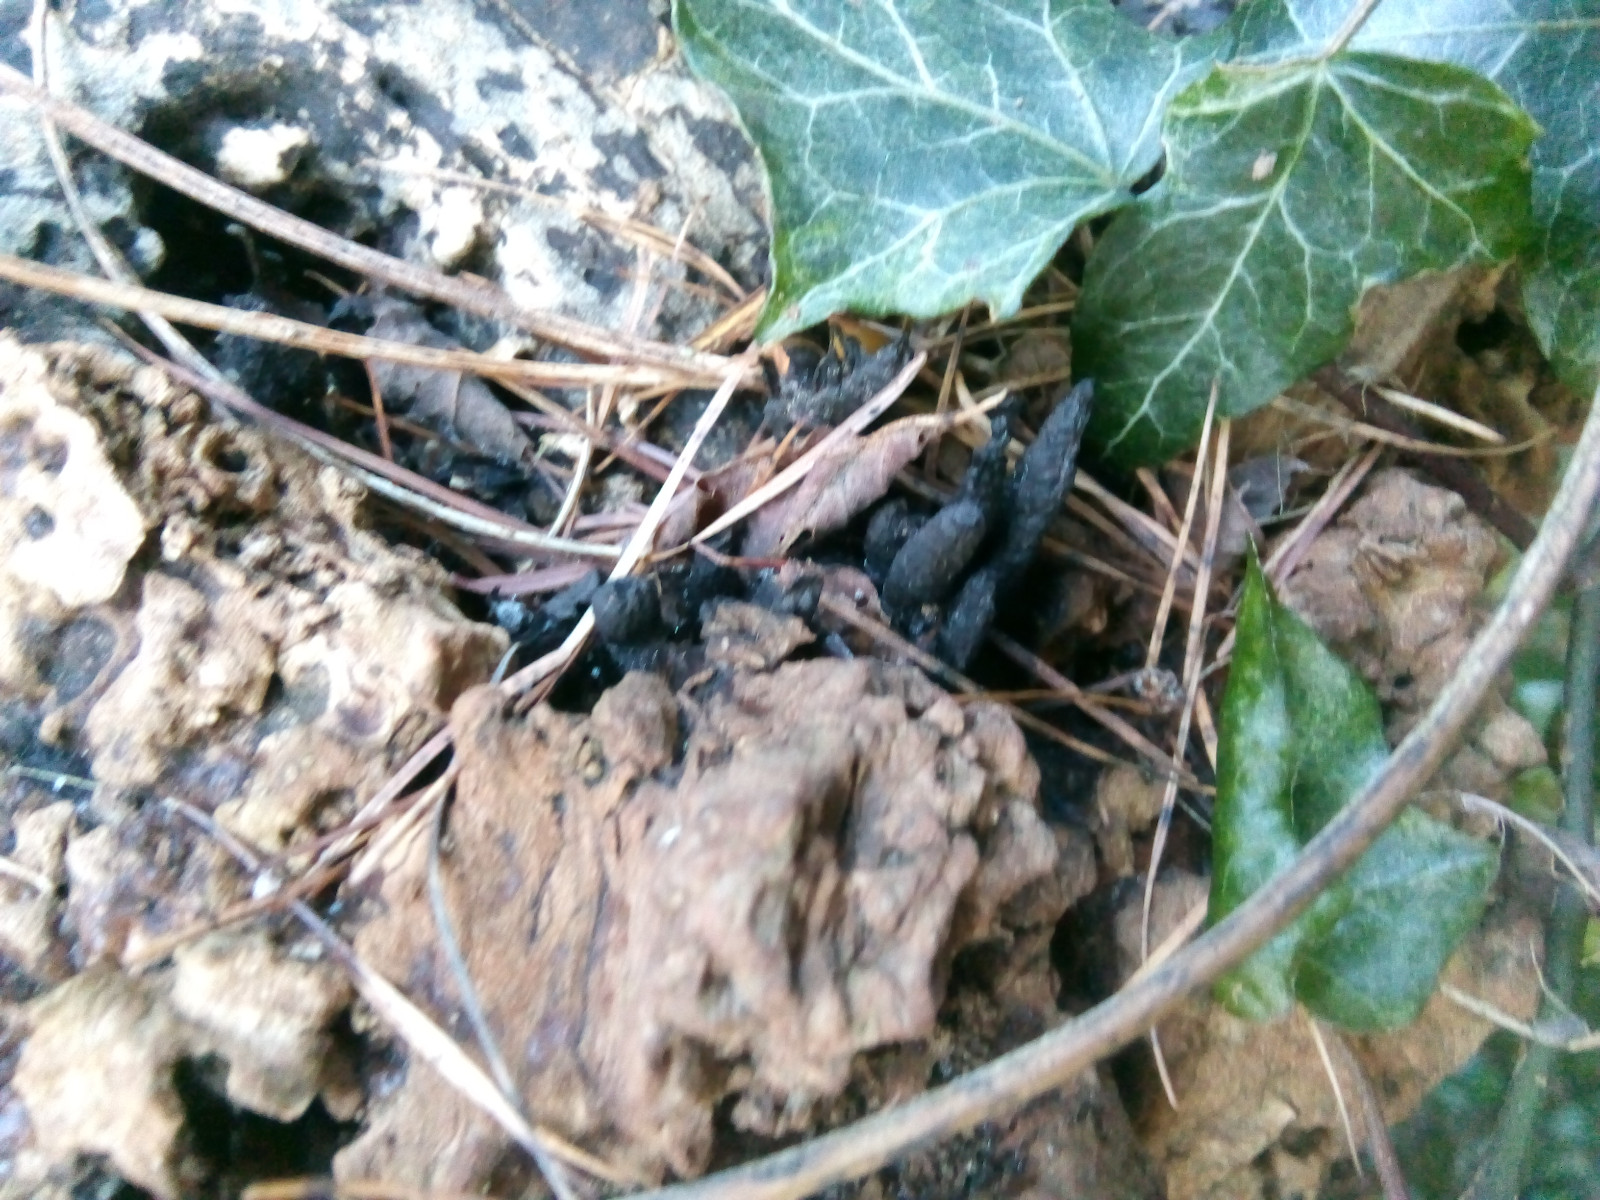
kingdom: Fungi
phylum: Ascomycota
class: Sordariomycetes
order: Xylariales
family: Xylariaceae
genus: Xylaria
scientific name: Xylaria hypoxylon
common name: grenet stødsvamp
